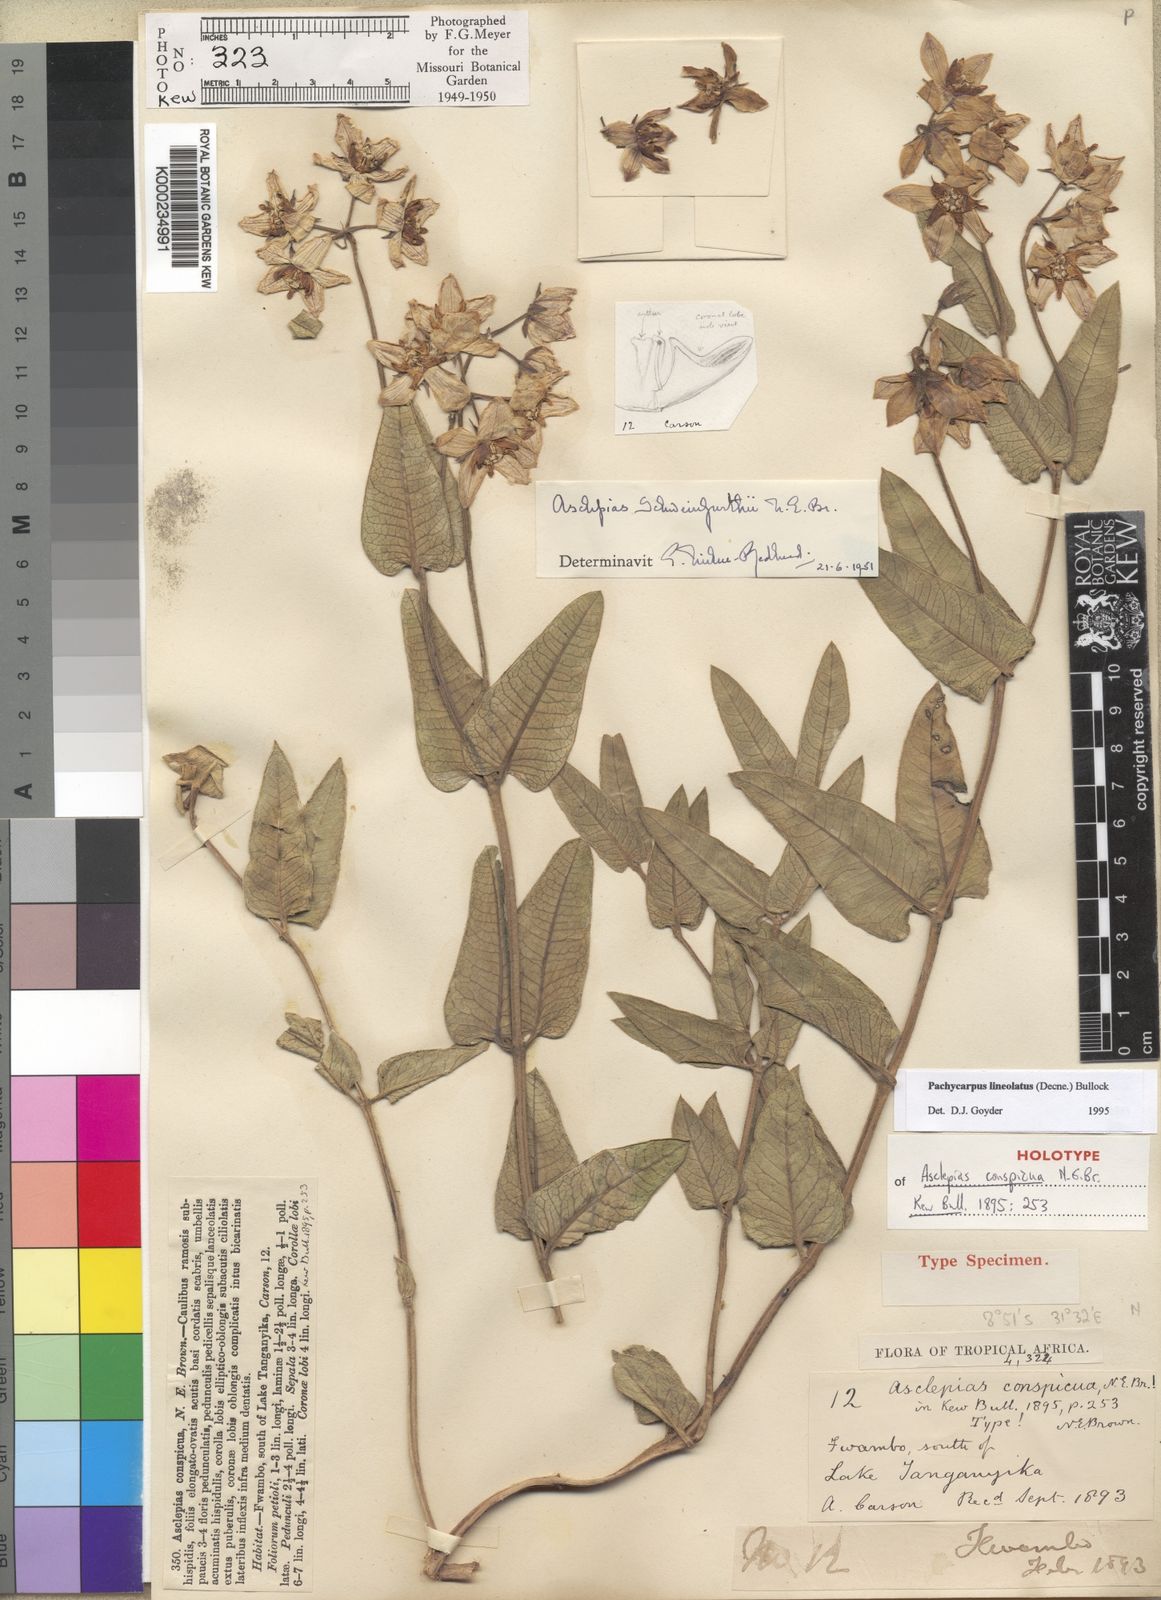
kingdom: Plantae
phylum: Tracheophyta
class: Magnoliopsida
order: Gentianales
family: Apocynaceae
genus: Pachycarpus
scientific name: Pachycarpus lineolatus
